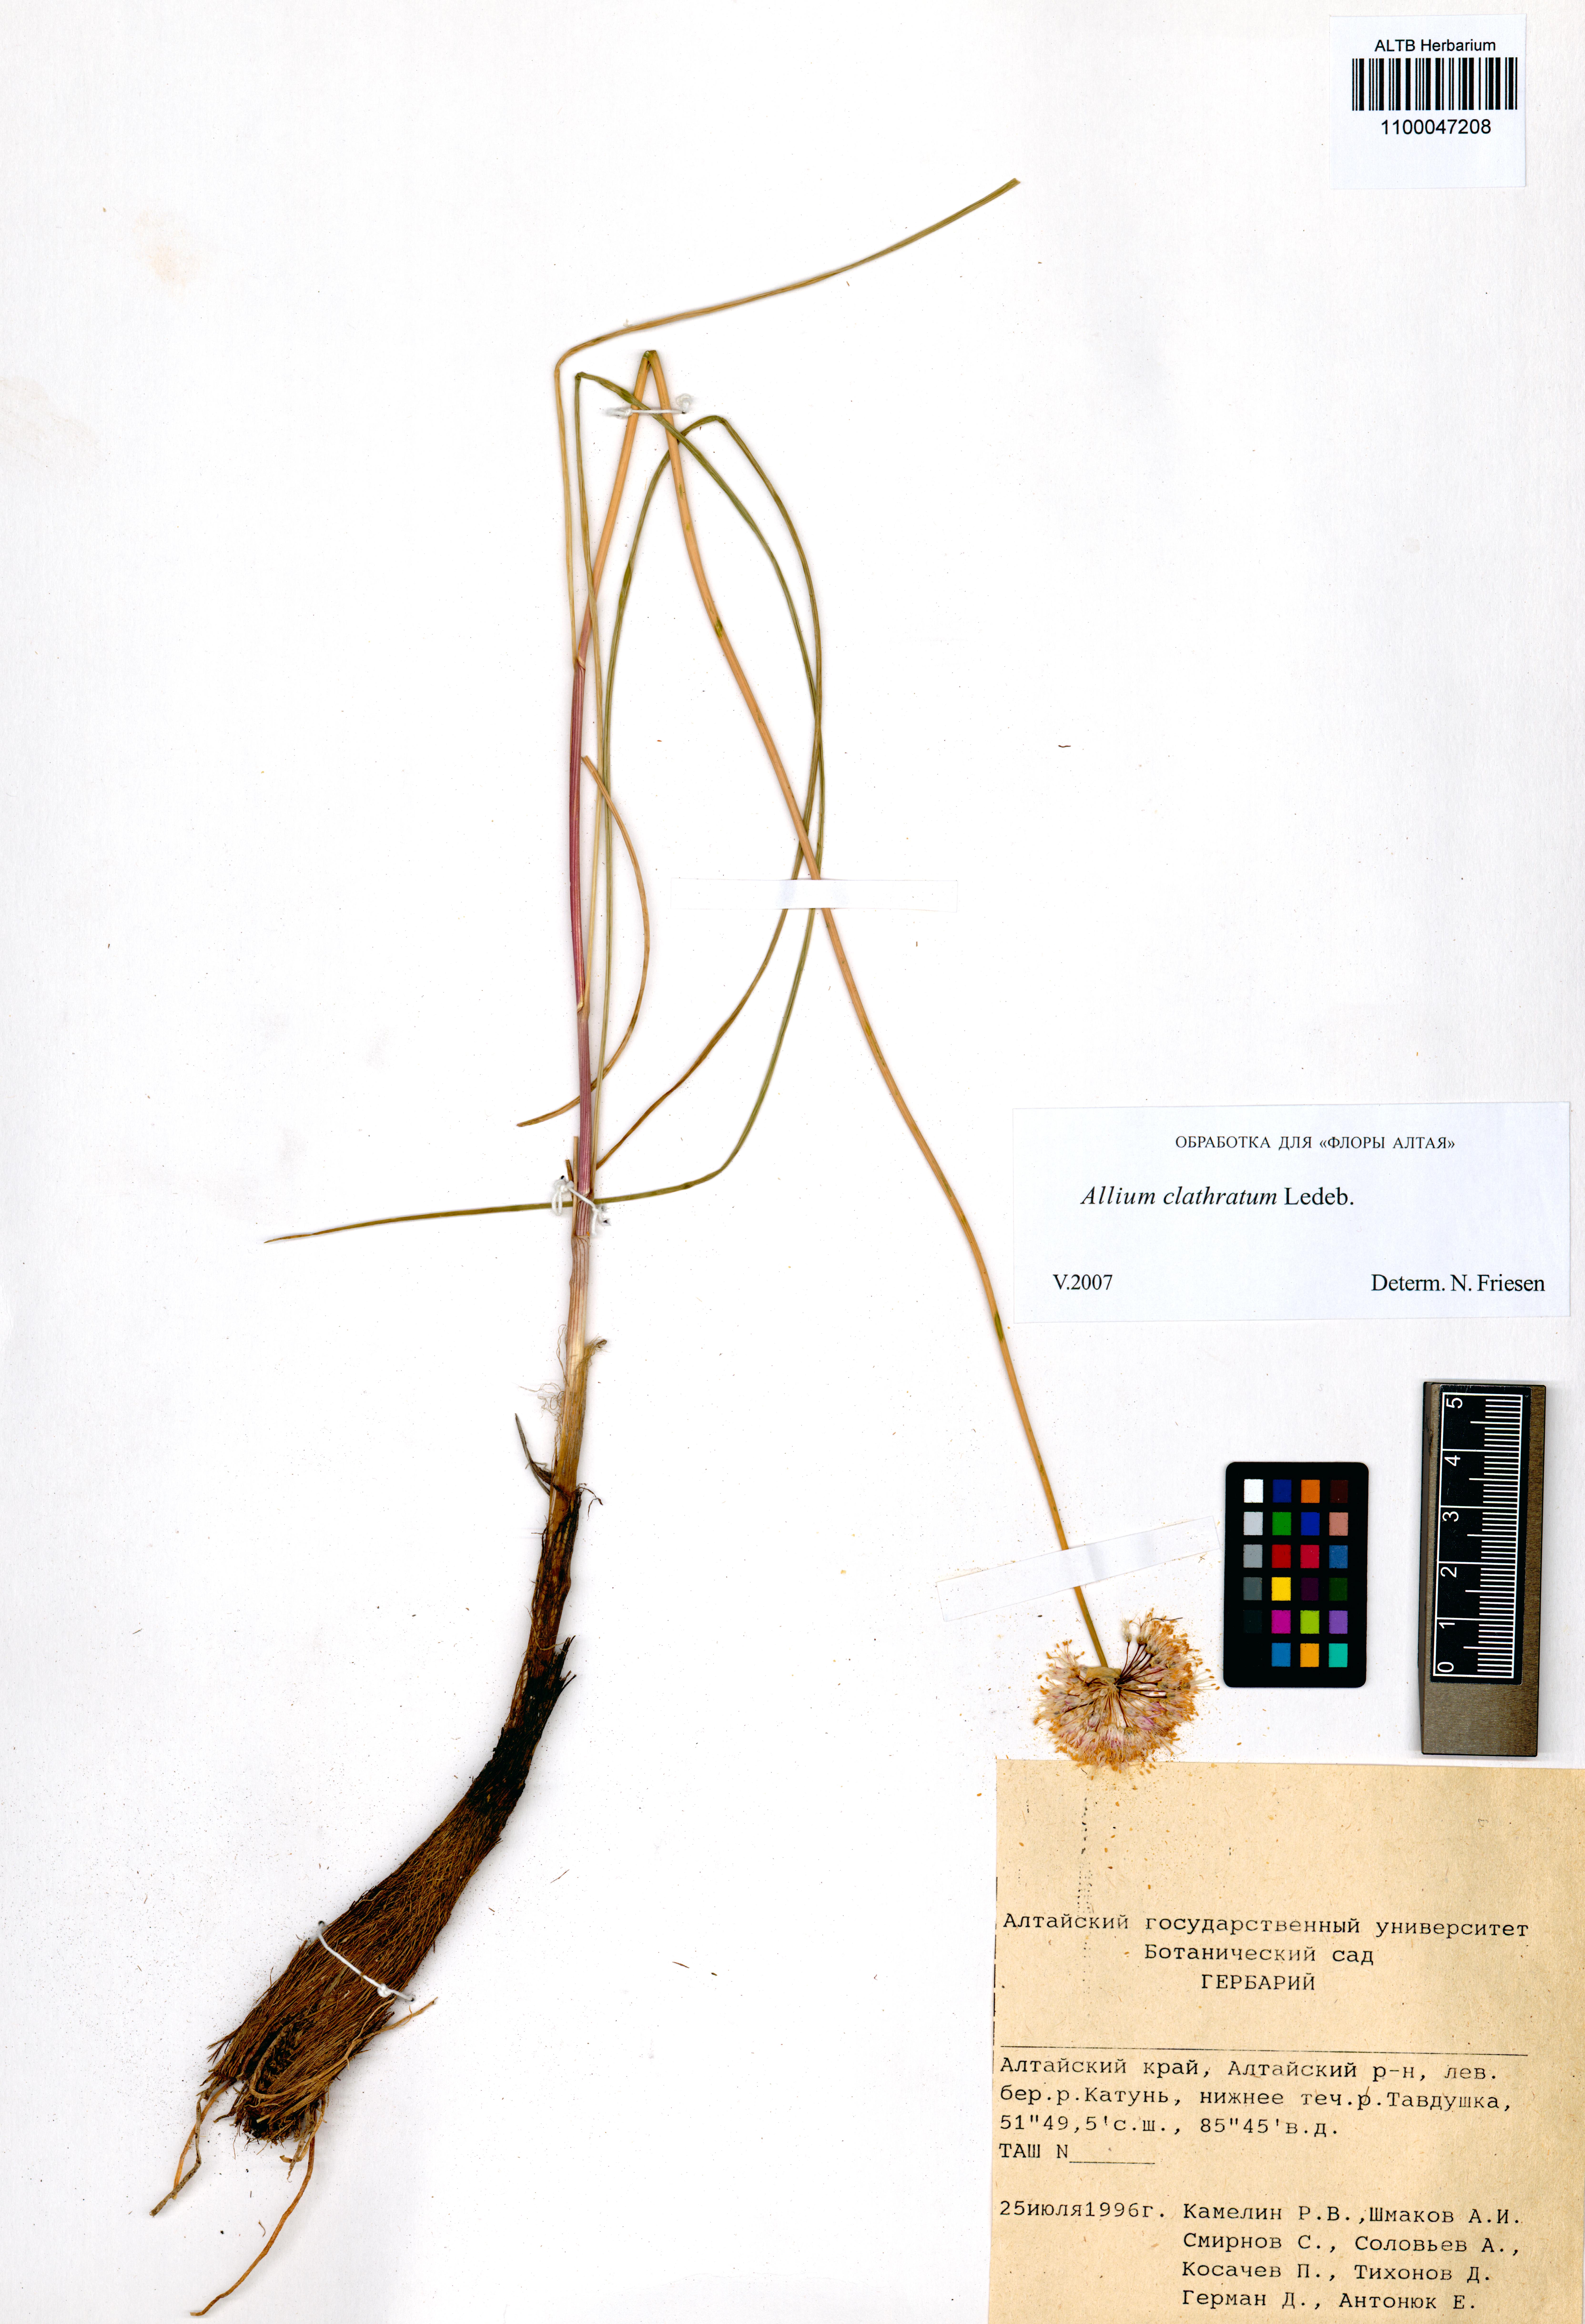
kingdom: Plantae
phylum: Tracheophyta
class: Liliopsida
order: Asparagales
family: Amaryllidaceae
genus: Allium
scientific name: Allium clathratum
